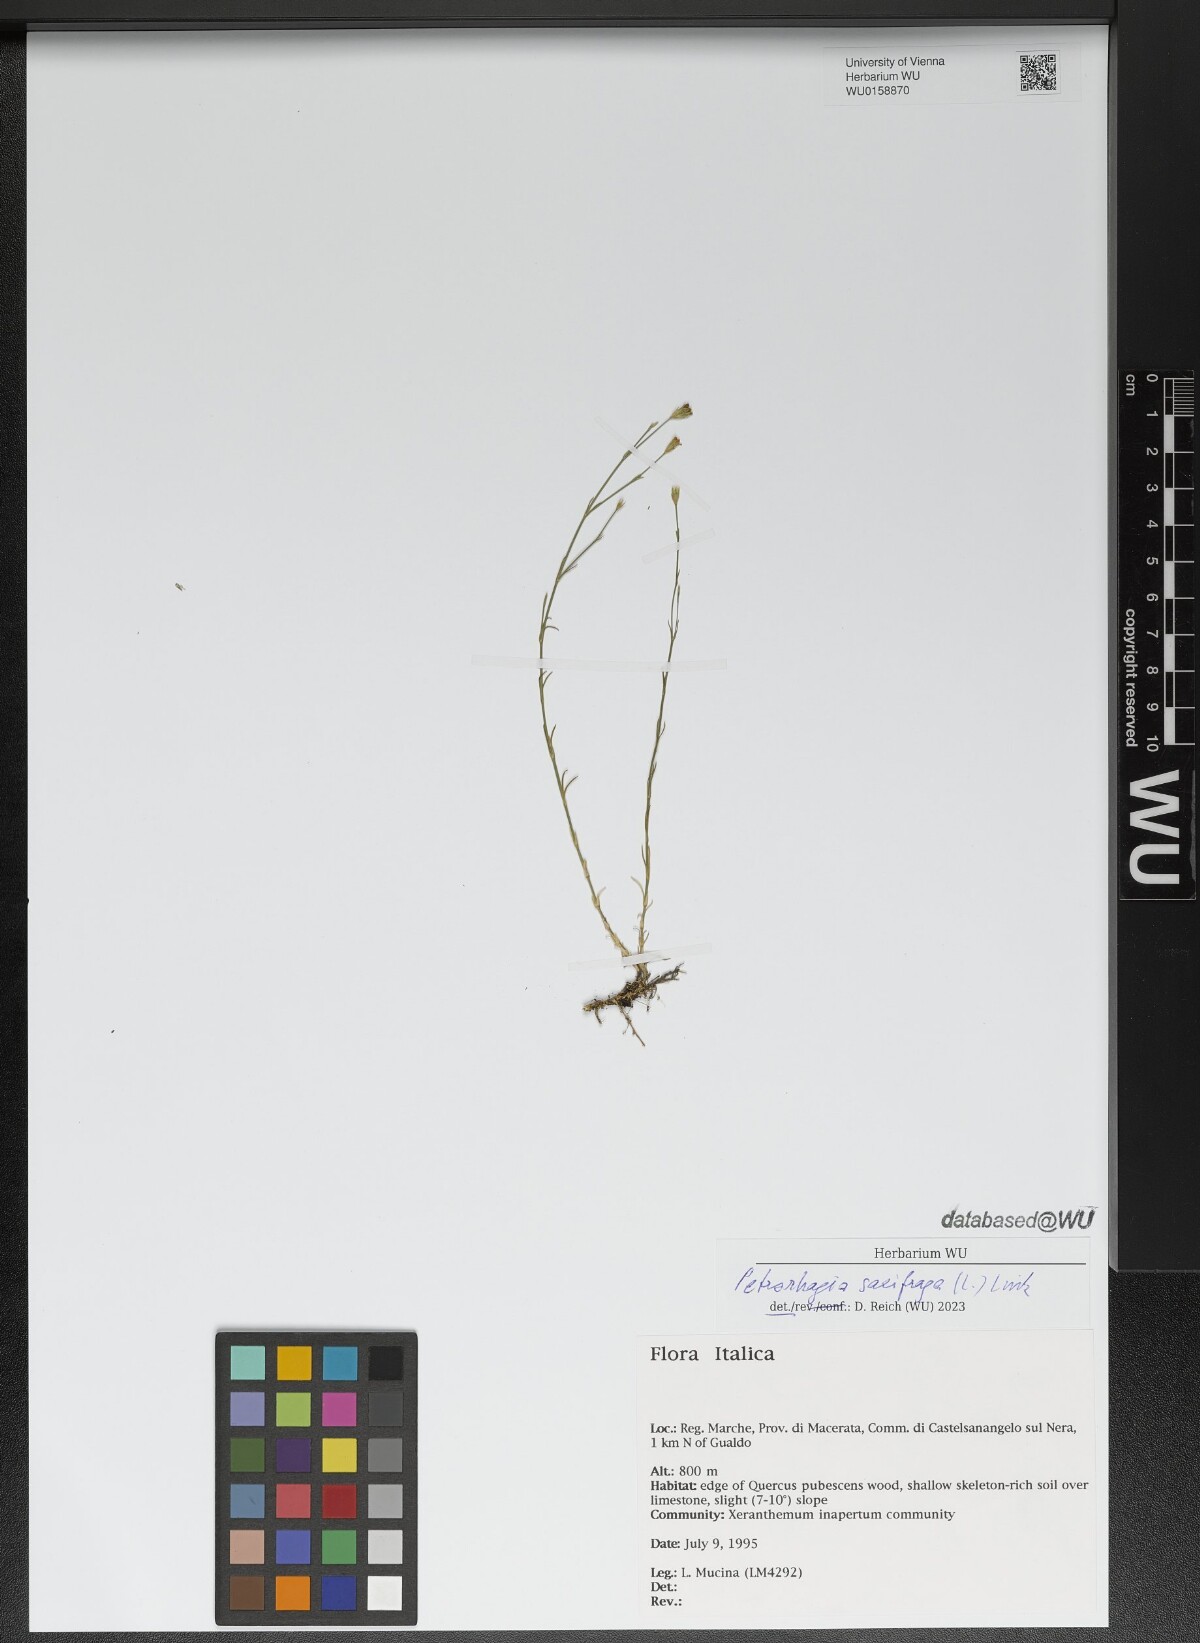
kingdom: Plantae
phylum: Tracheophyta
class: Magnoliopsida
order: Caryophyllales
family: Caryophyllaceae
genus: Petrorhagia
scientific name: Petrorhagia saxifraga
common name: Tunicflower
